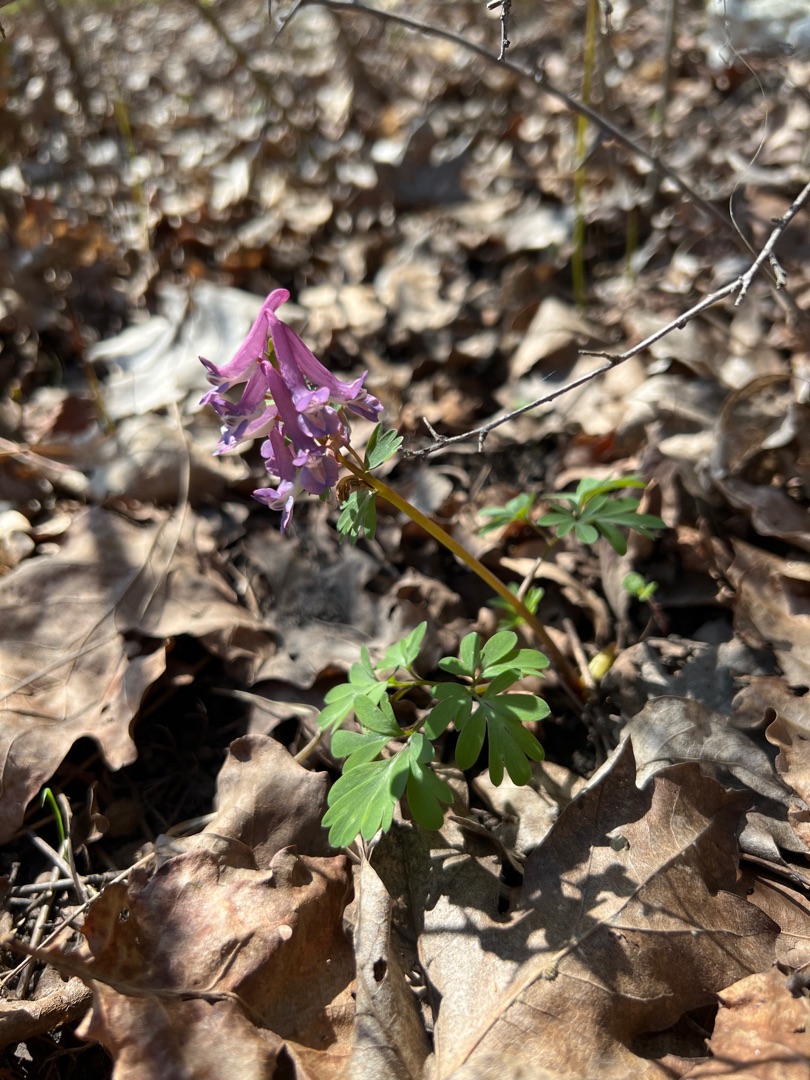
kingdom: Plantae
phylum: Tracheophyta
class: Magnoliopsida
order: Ranunculales
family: Papaveraceae
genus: Corydalis
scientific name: Corydalis solida
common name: Langstilket lærkespore
